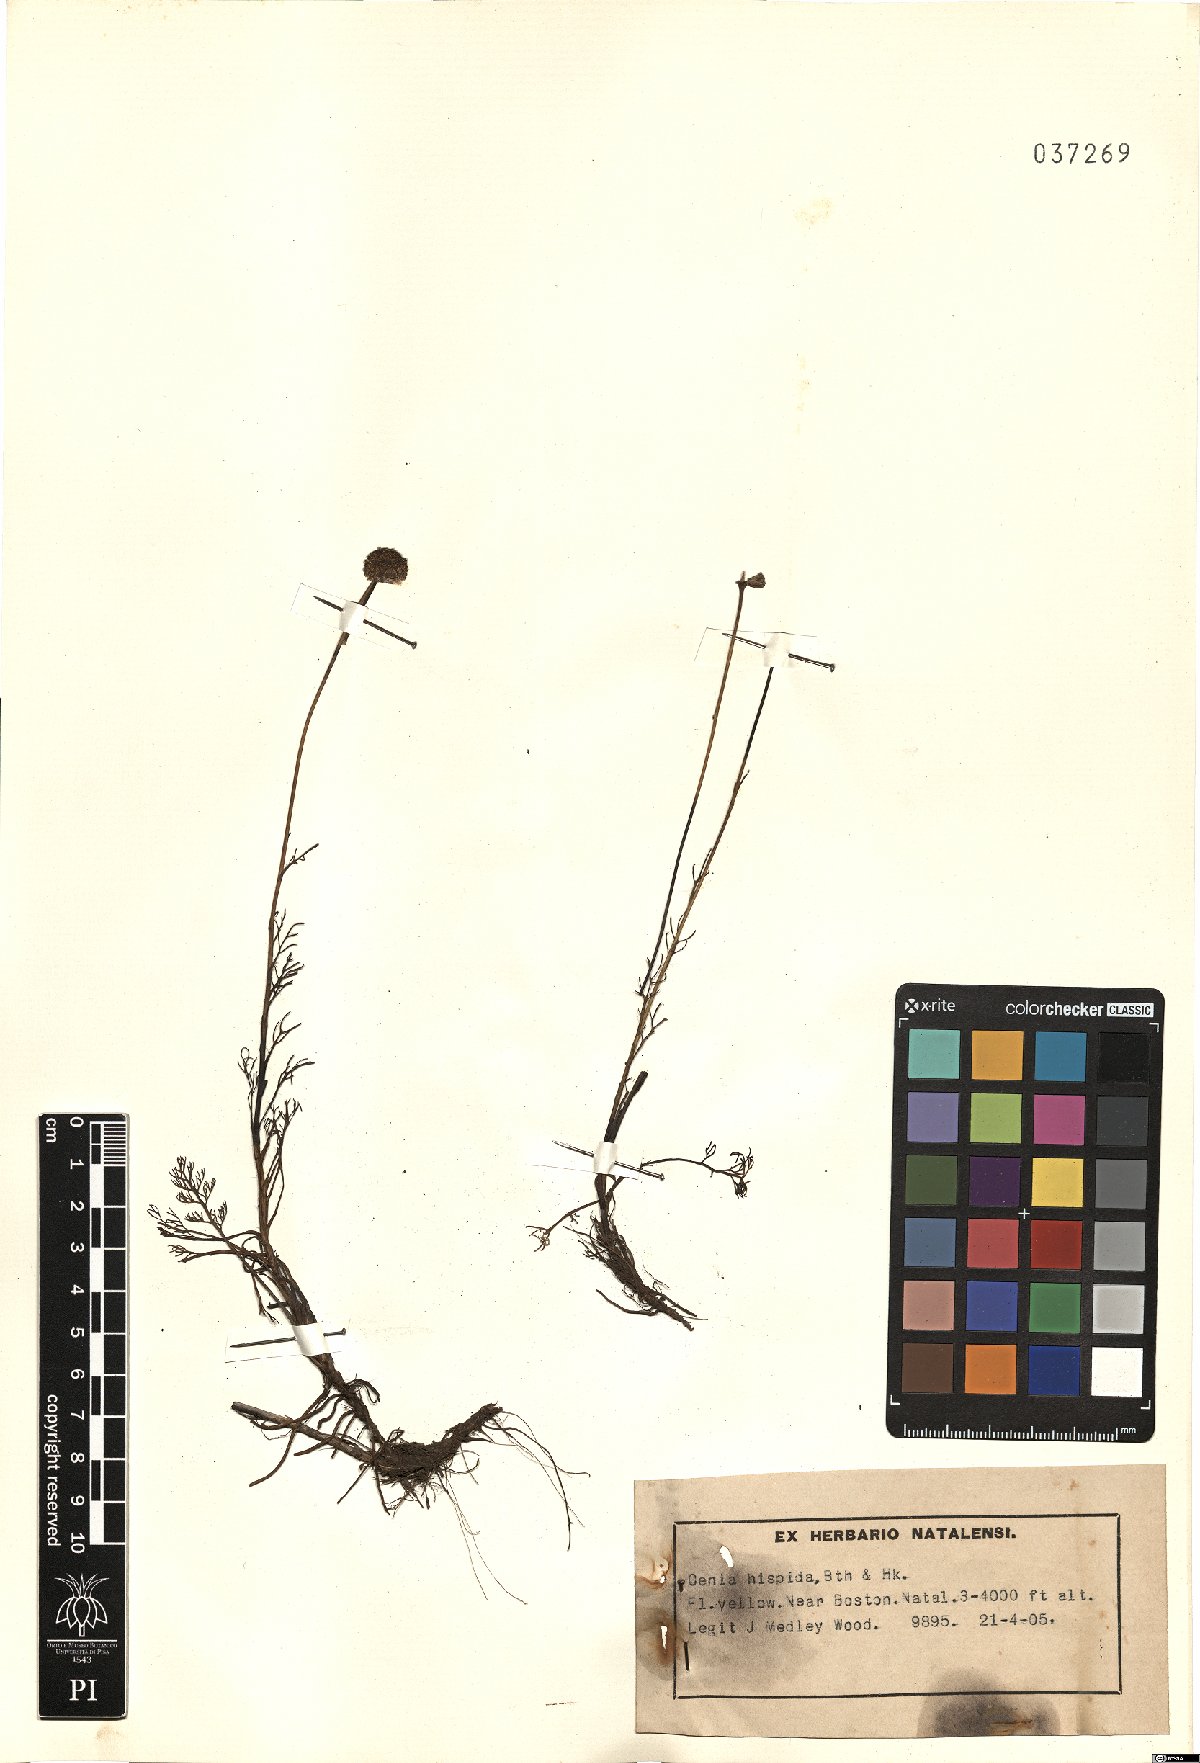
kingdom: Plantae
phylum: Tracheophyta
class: Magnoliopsida
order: Asterales
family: Asteraceae
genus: Cotula
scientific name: Cotula hispida
